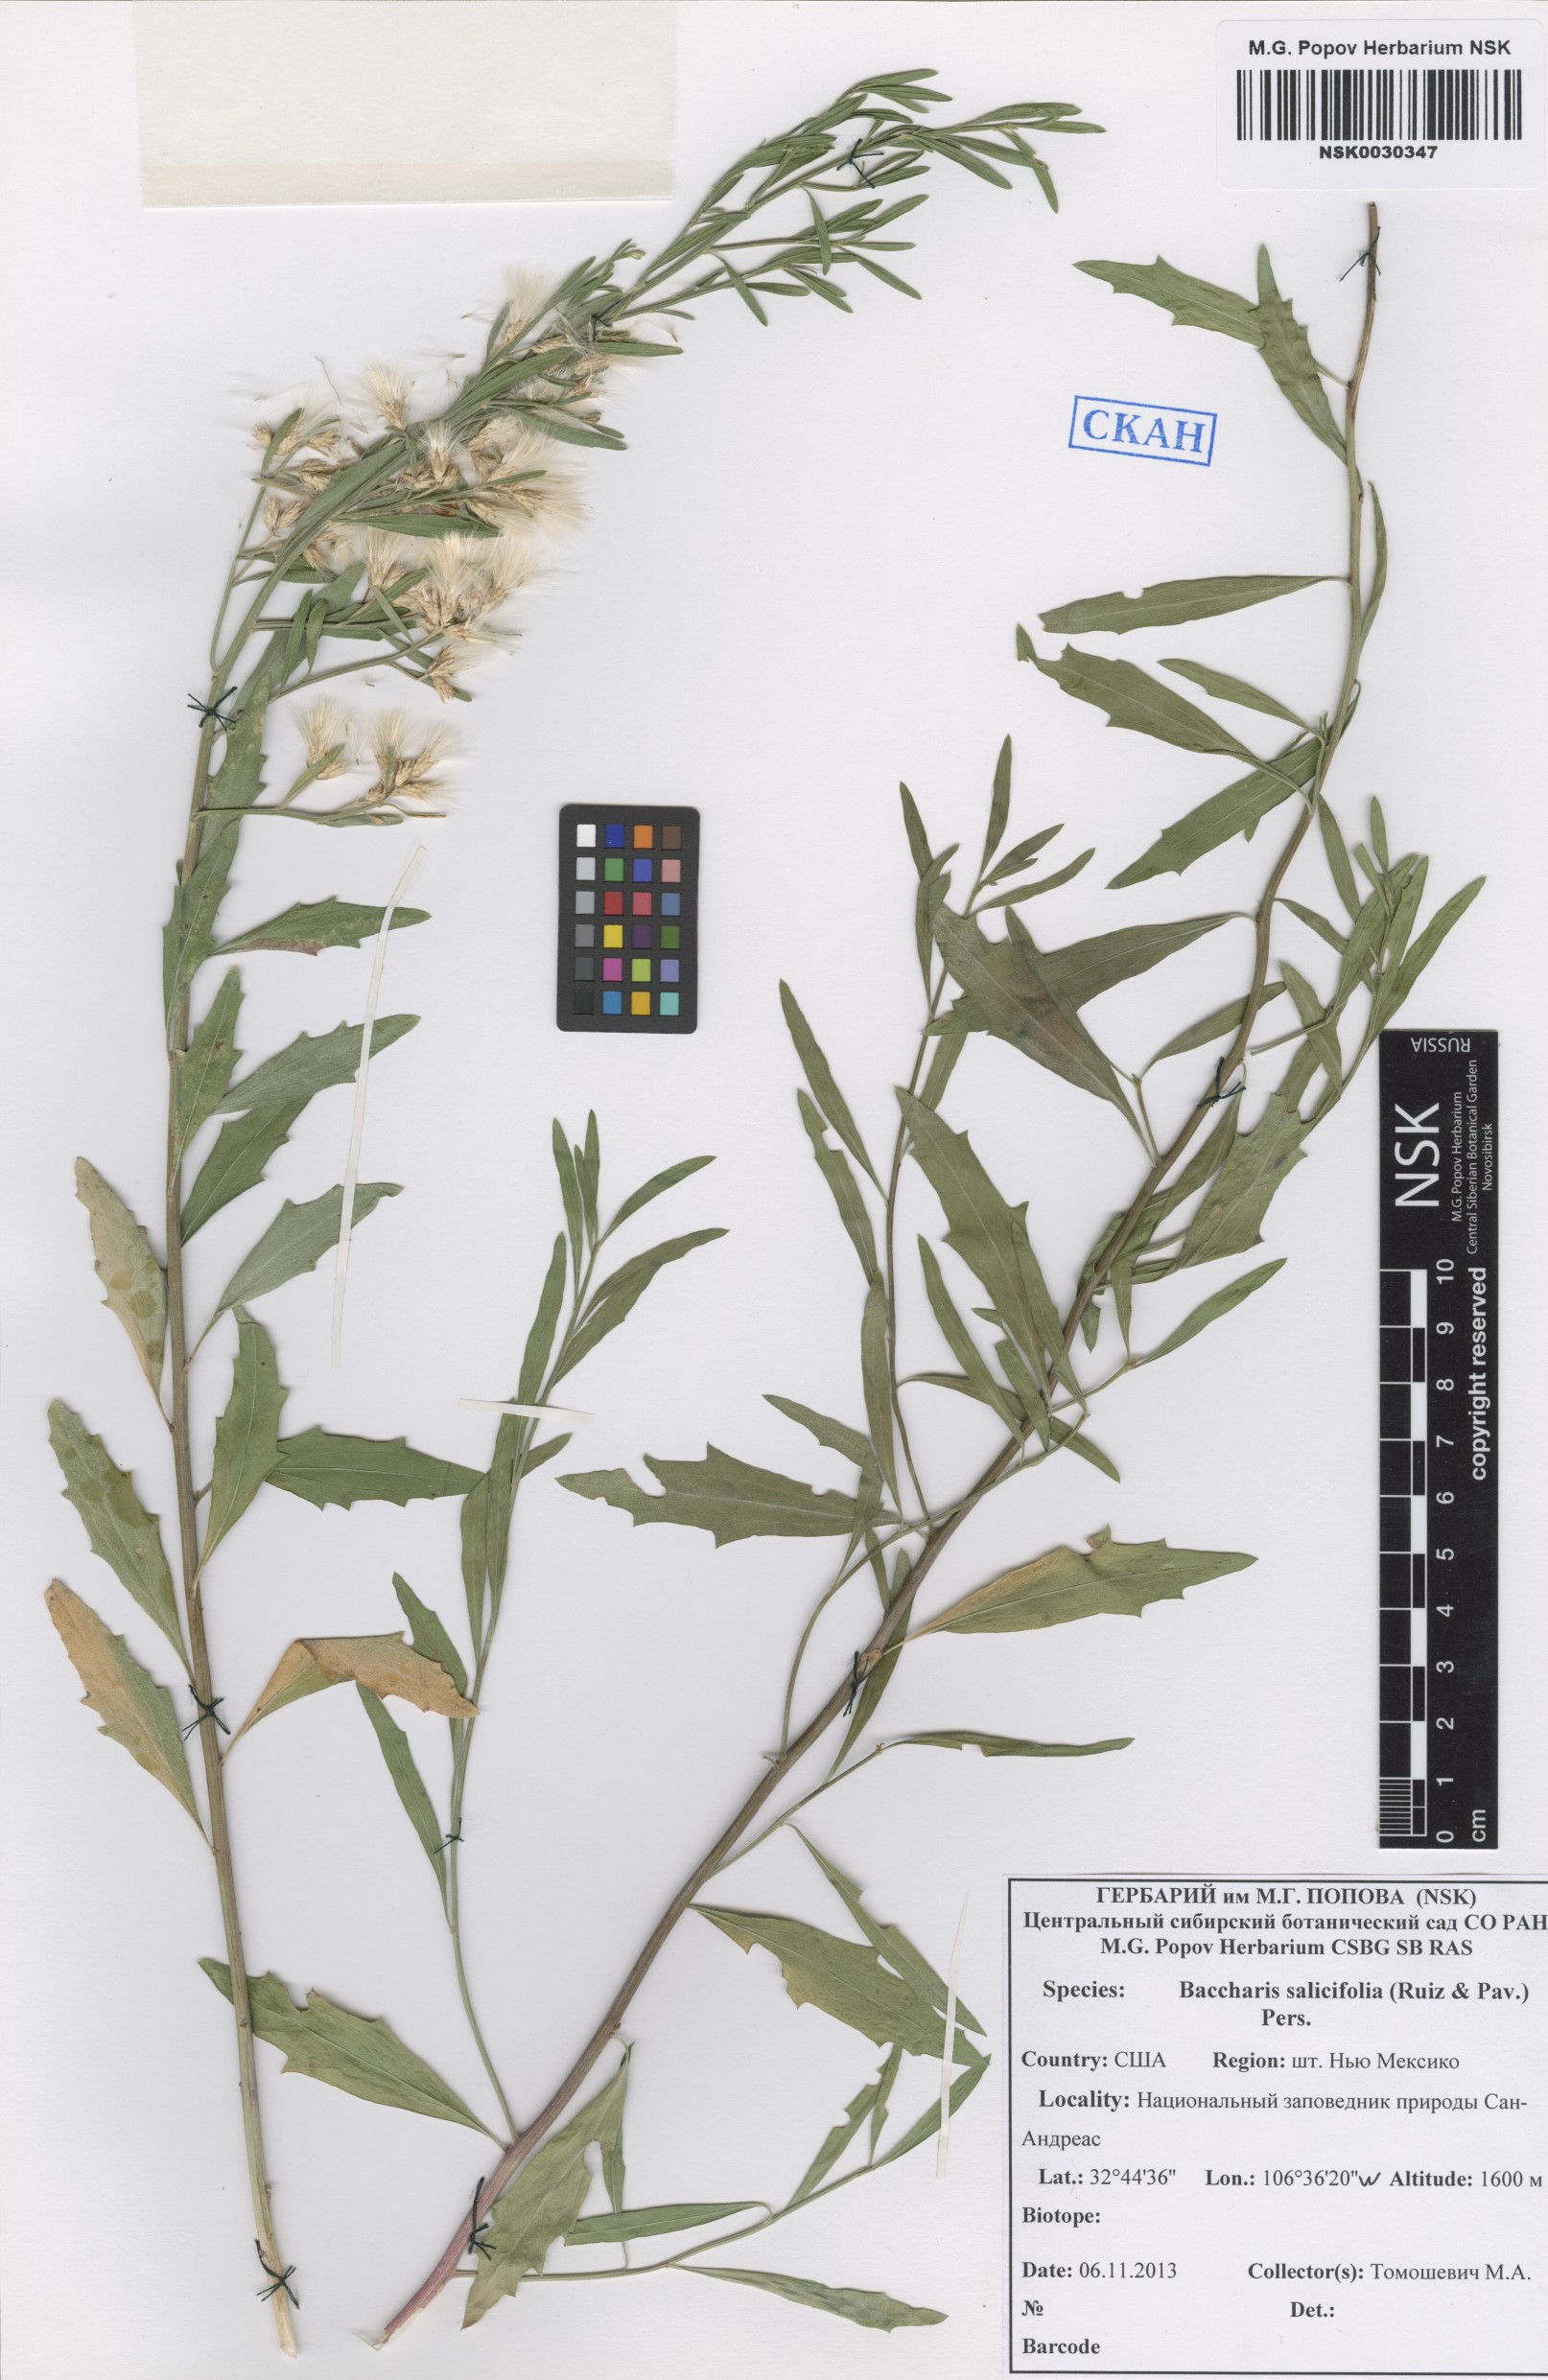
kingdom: Plantae
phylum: Tracheophyta
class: Magnoliopsida
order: Asterales
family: Asteraceae
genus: Baccharis
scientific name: Baccharis salicina
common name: Willow baccharis
